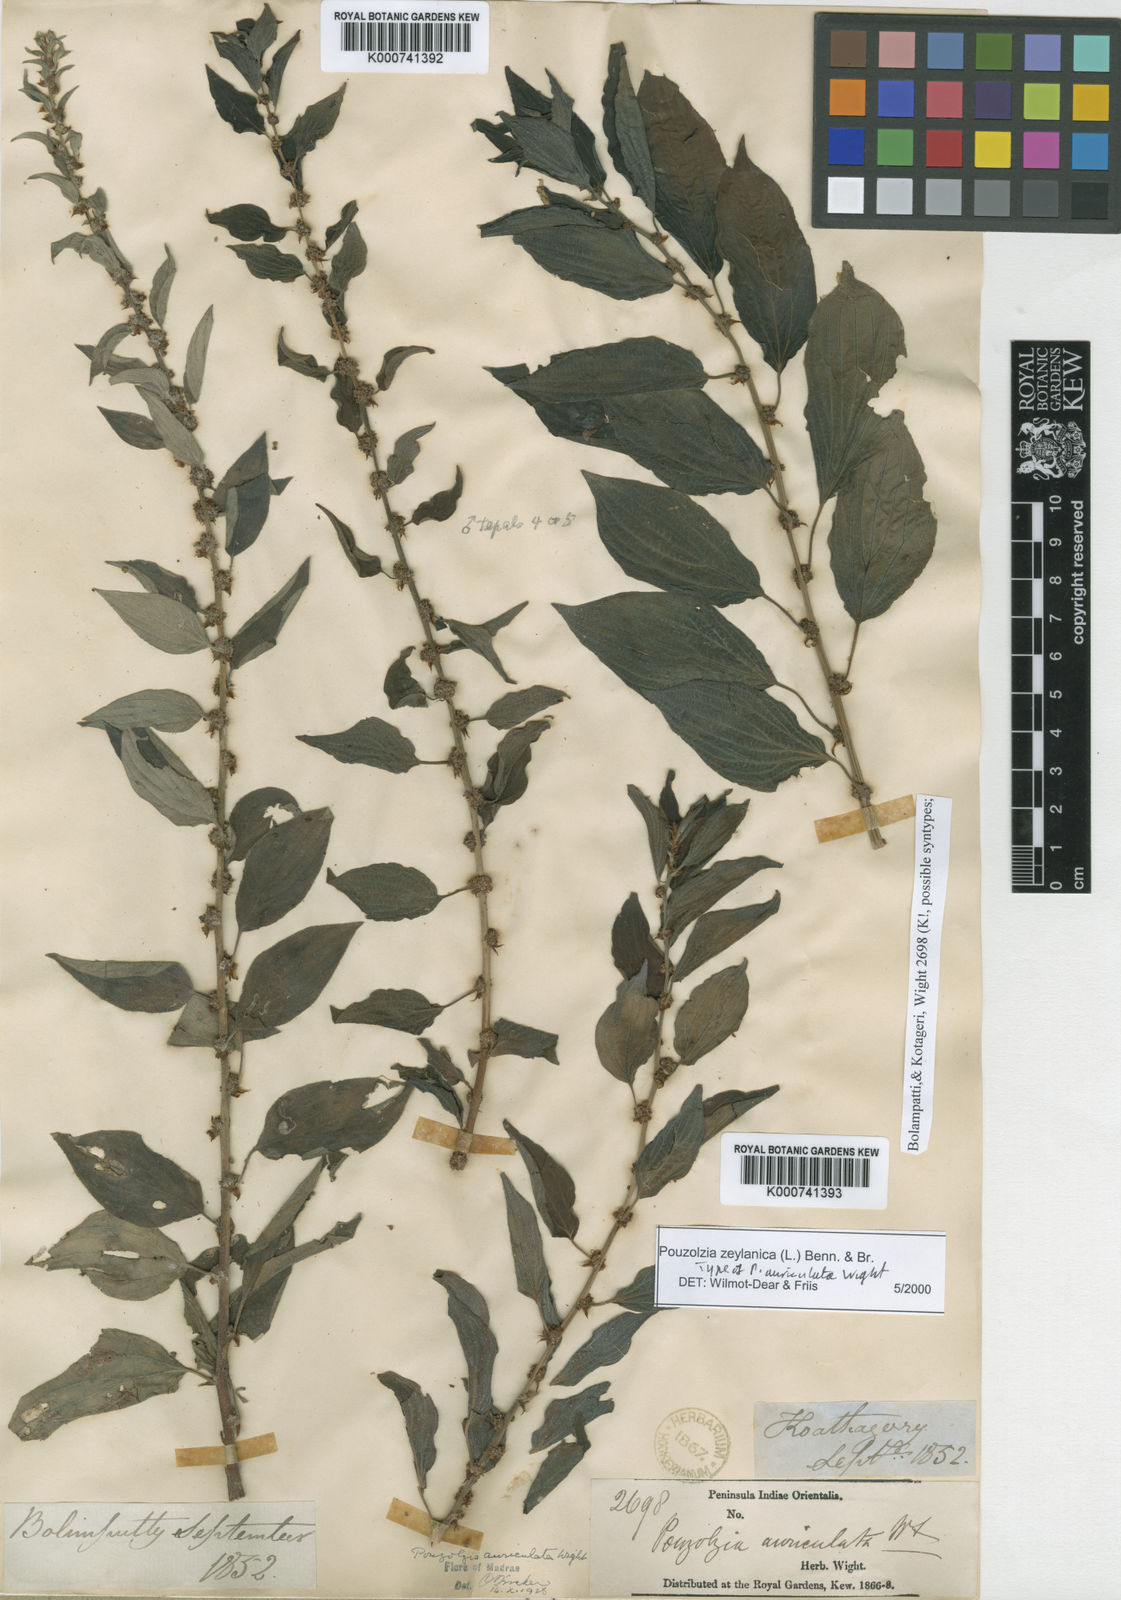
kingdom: Plantae
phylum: Tracheophyta
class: Magnoliopsida
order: Rosales
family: Urticaceae
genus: Pouzolzia
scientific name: Pouzolzia zeylanica
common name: Graceful pouzolzsbush
